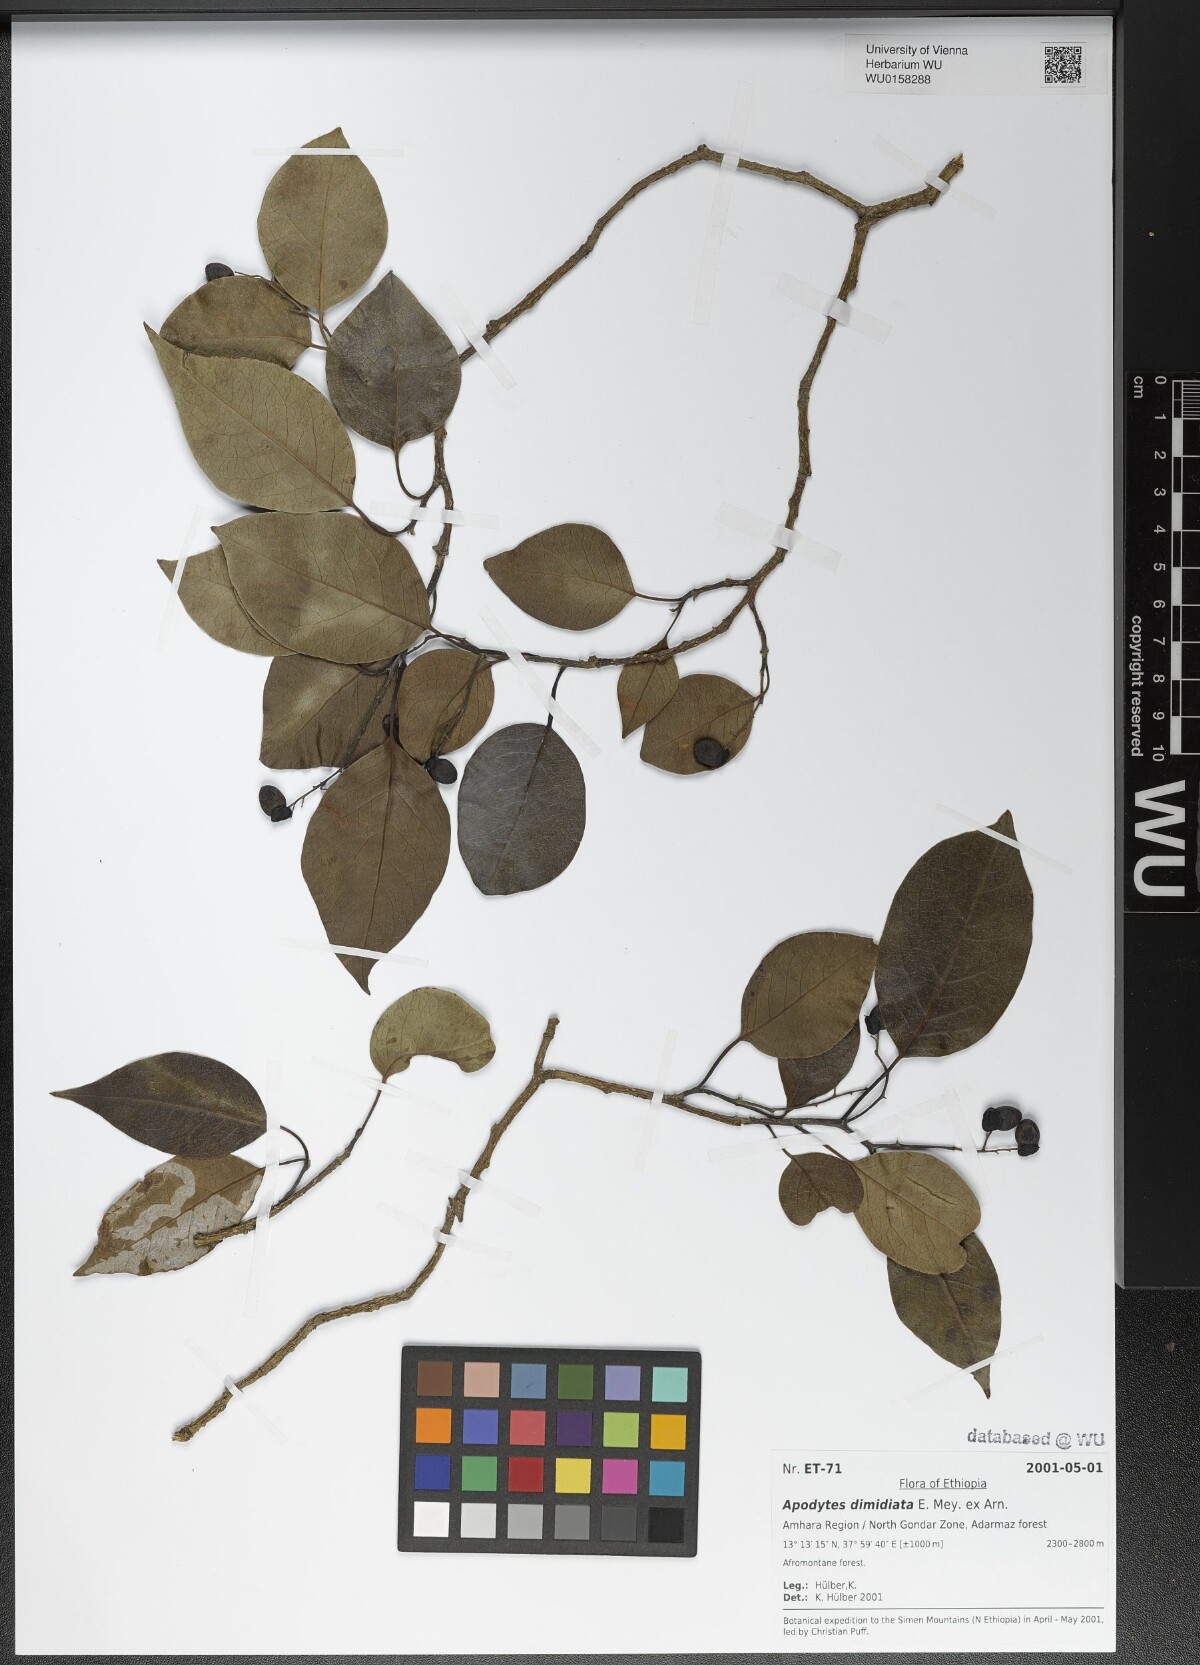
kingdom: Plantae
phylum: Tracheophyta
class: Magnoliopsida
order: Metteniusales
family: Metteniusaceae
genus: Apodytes
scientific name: Apodytes dimidiata
